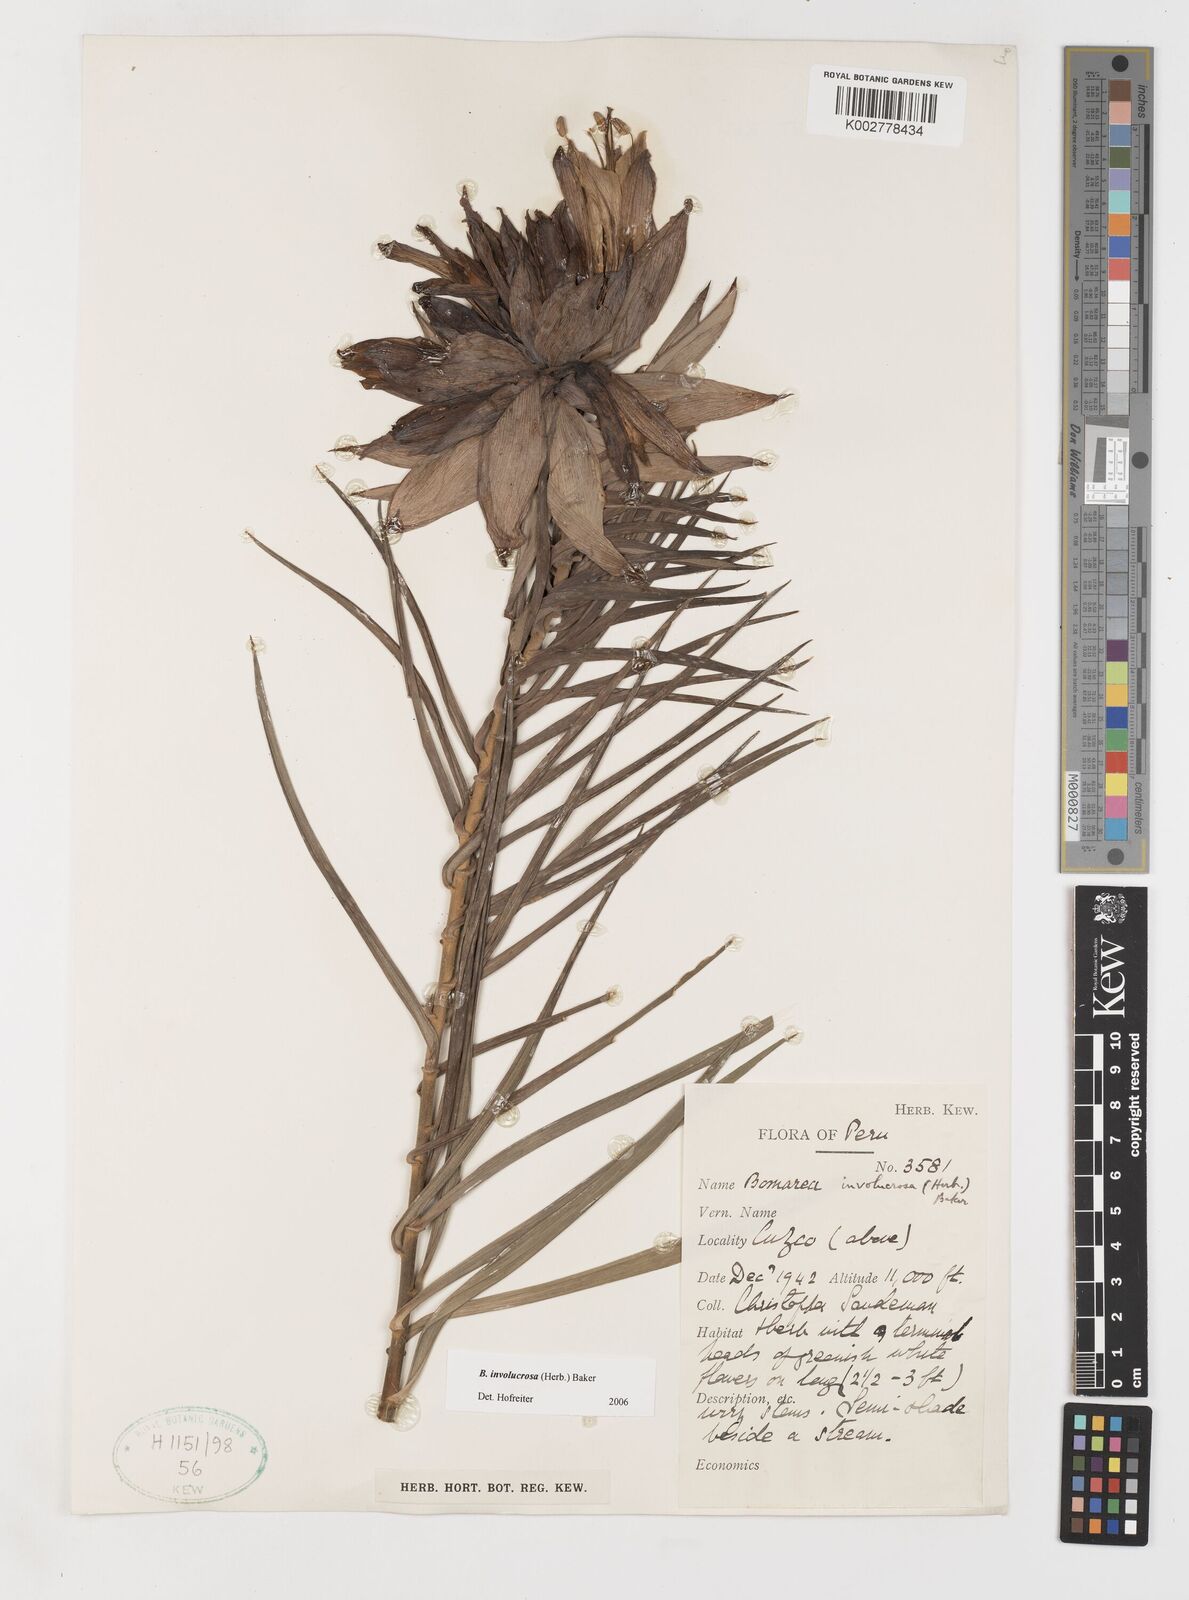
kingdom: Plantae
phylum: Tracheophyta
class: Liliopsida
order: Liliales
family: Alstroemeriaceae
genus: Bomarea
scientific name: Bomarea involucrosa
